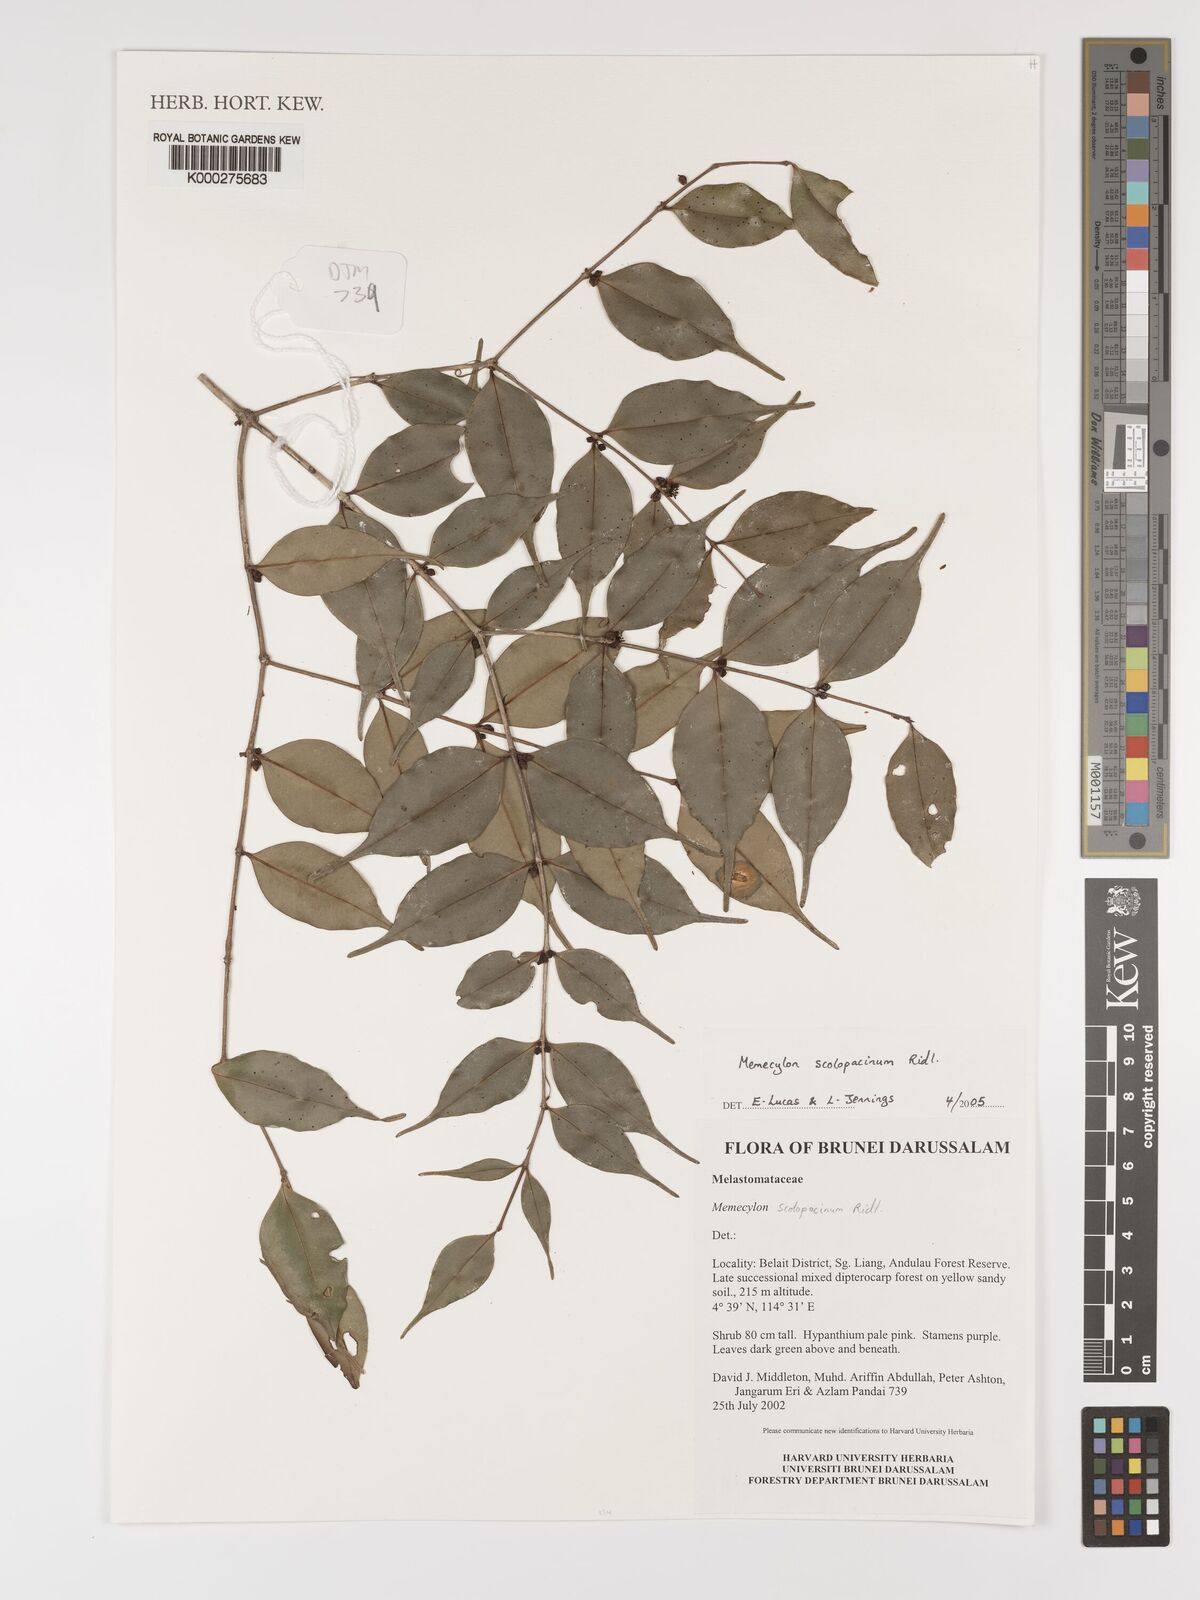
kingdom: Plantae
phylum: Tracheophyta
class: Magnoliopsida
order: Myrtales
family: Melastomataceae
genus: Memecylon
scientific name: Memecylon
